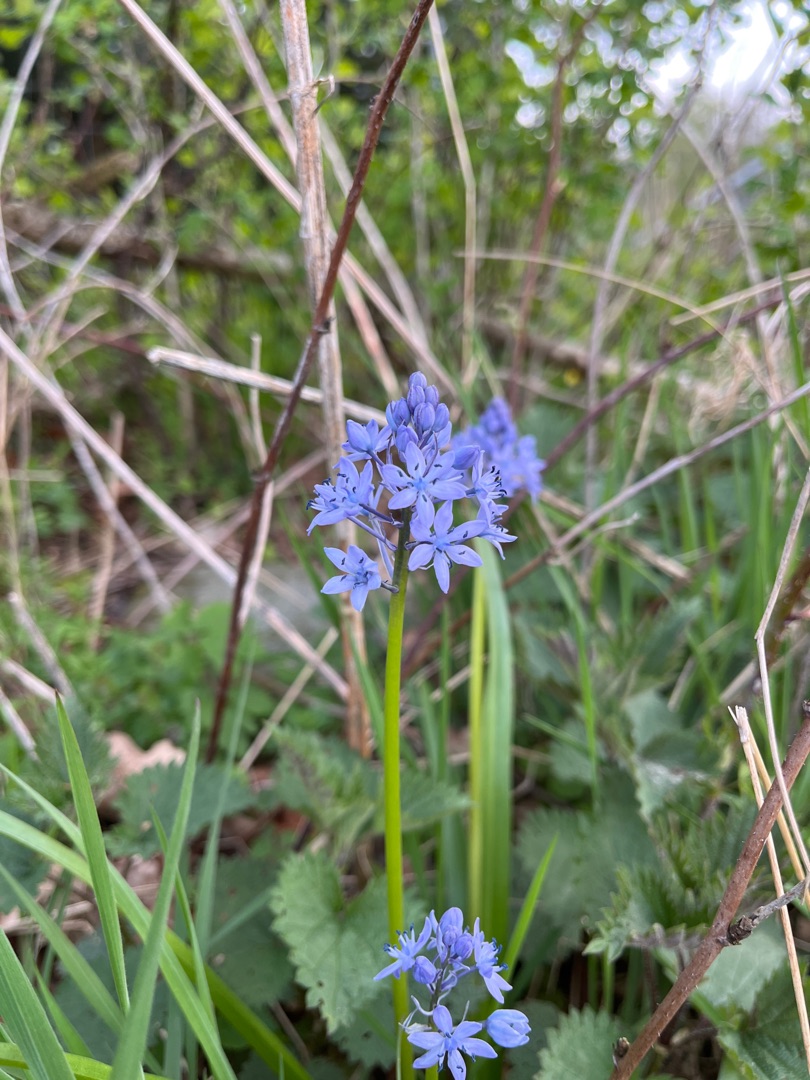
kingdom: Plantae
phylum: Tracheophyta
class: Liliopsida
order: Asparagales
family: Asparagaceae
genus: Hyacinthoides
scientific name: Hyacinthoides italica
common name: Italiensk skilla
